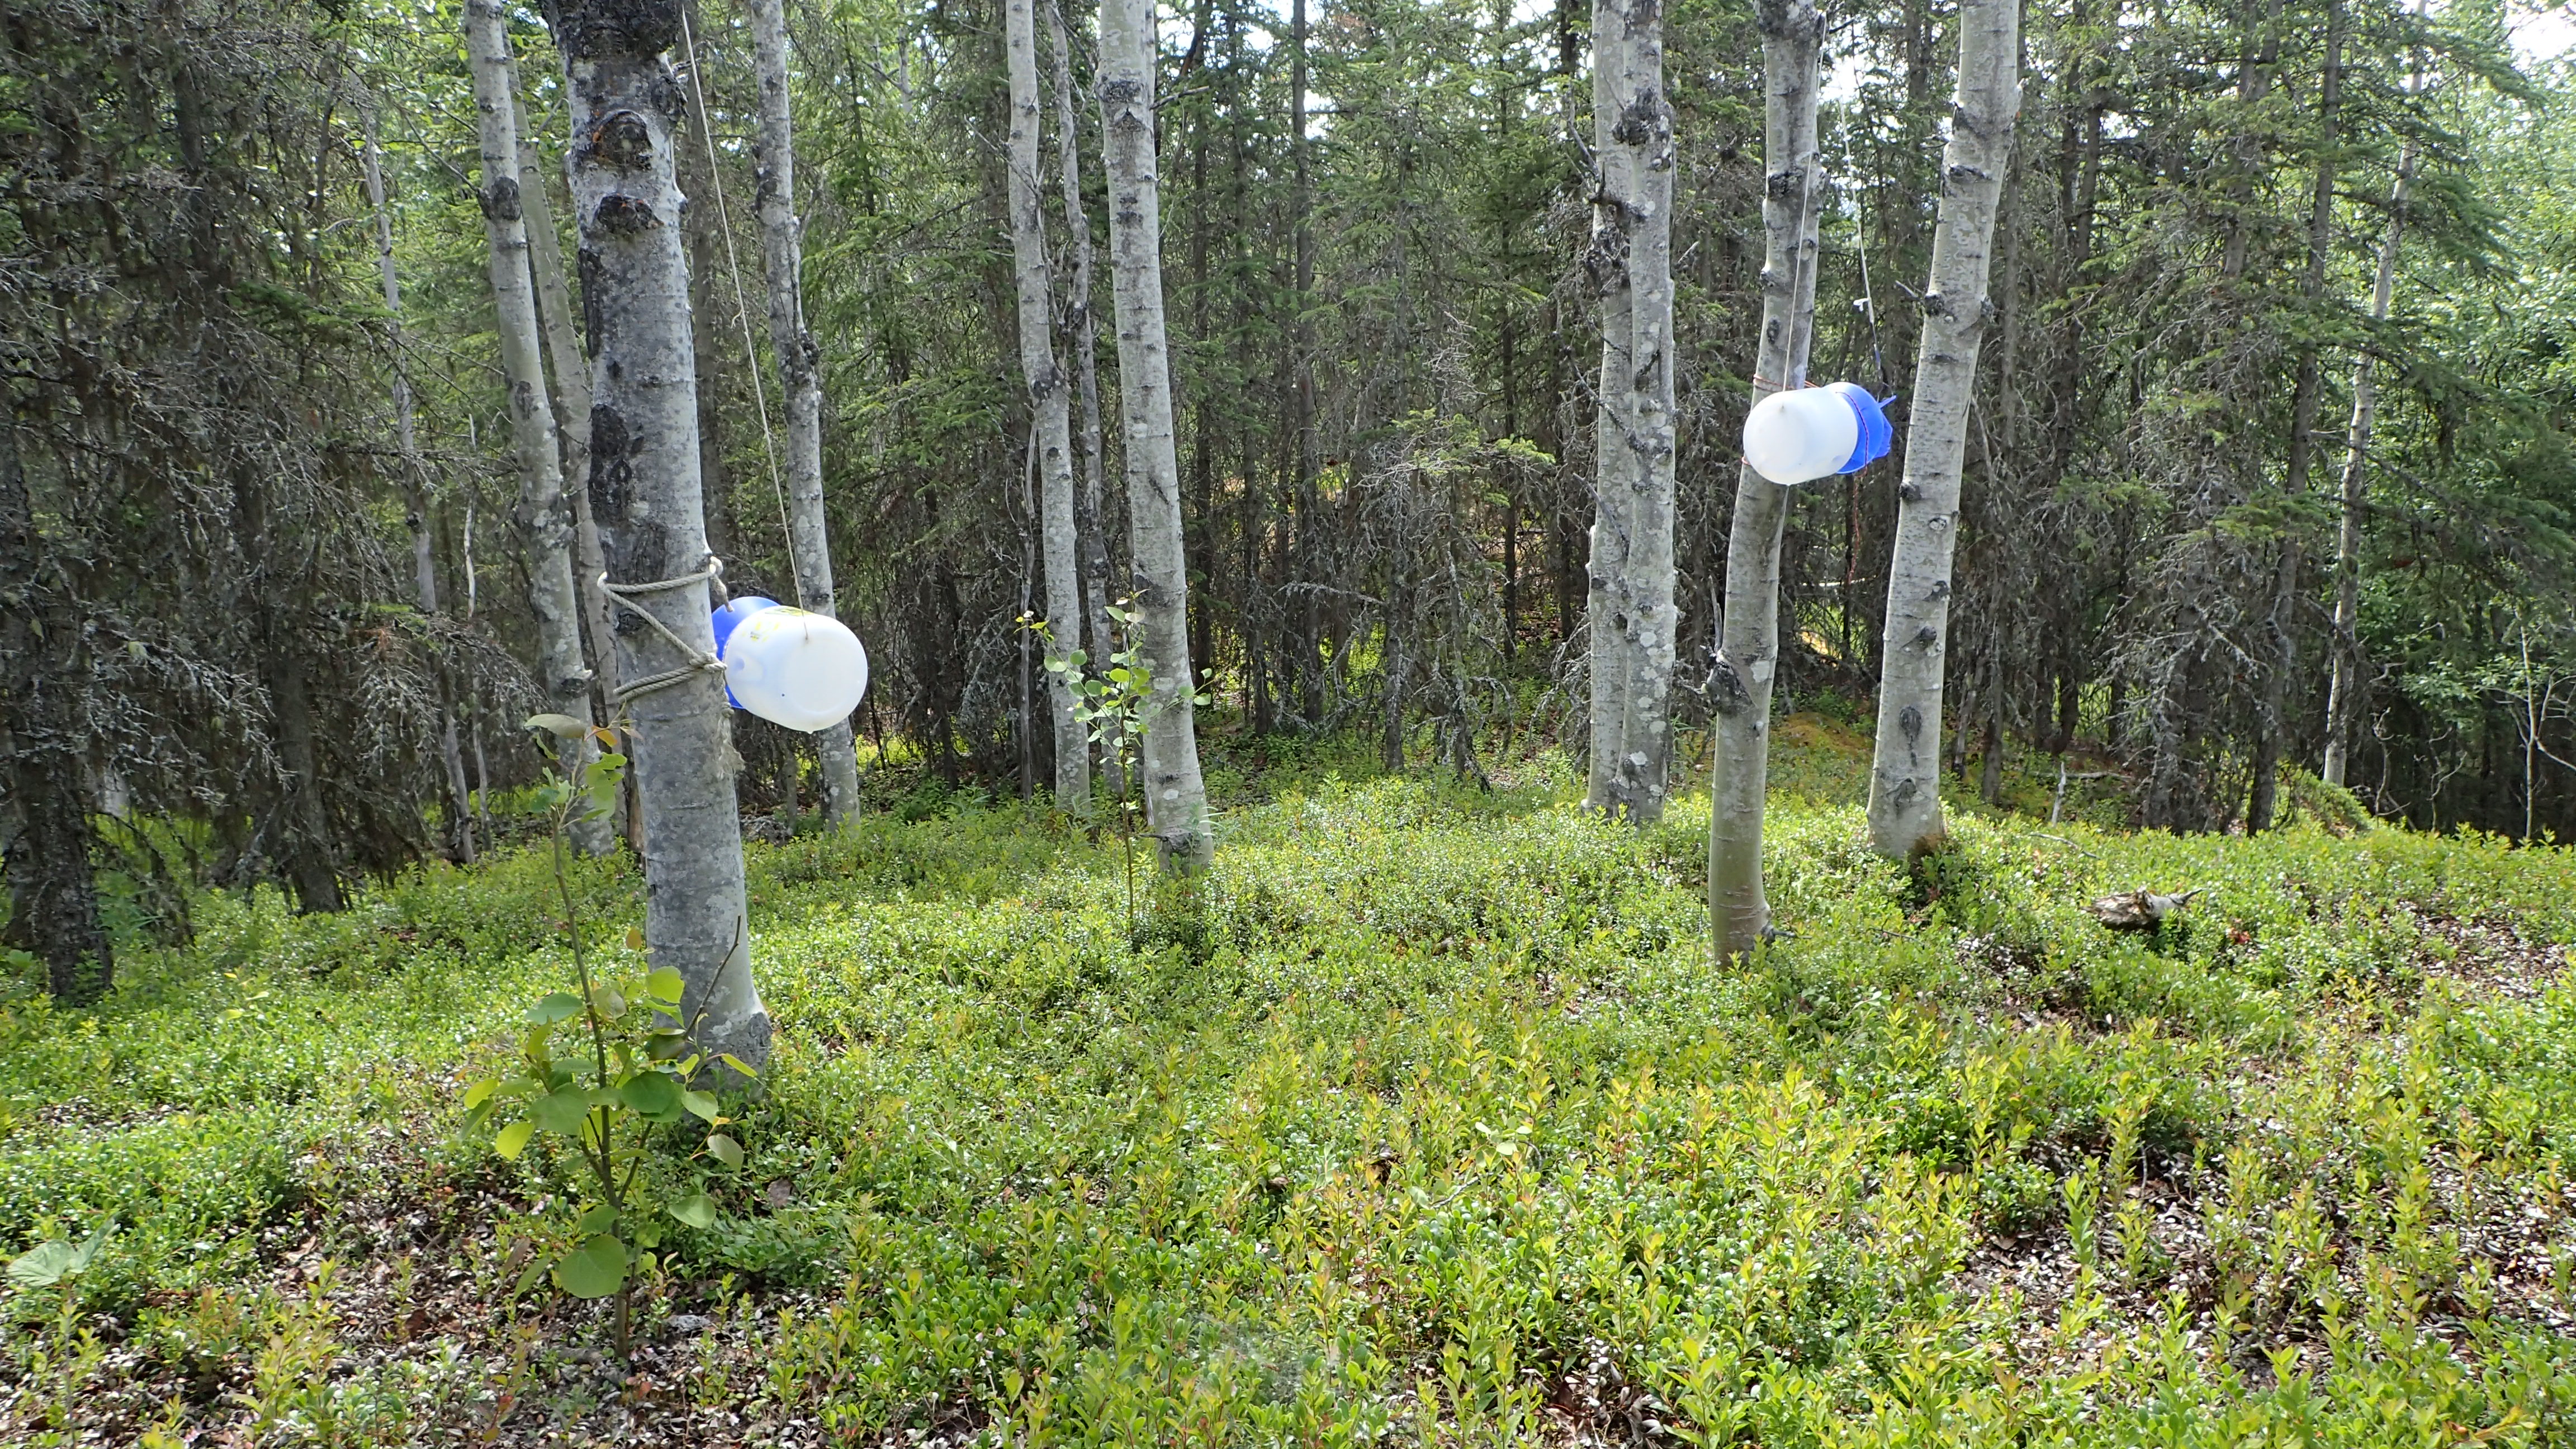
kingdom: Animalia
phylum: Arthropoda
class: Insecta
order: Diptera
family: Syrphidae
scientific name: Syrphidae
